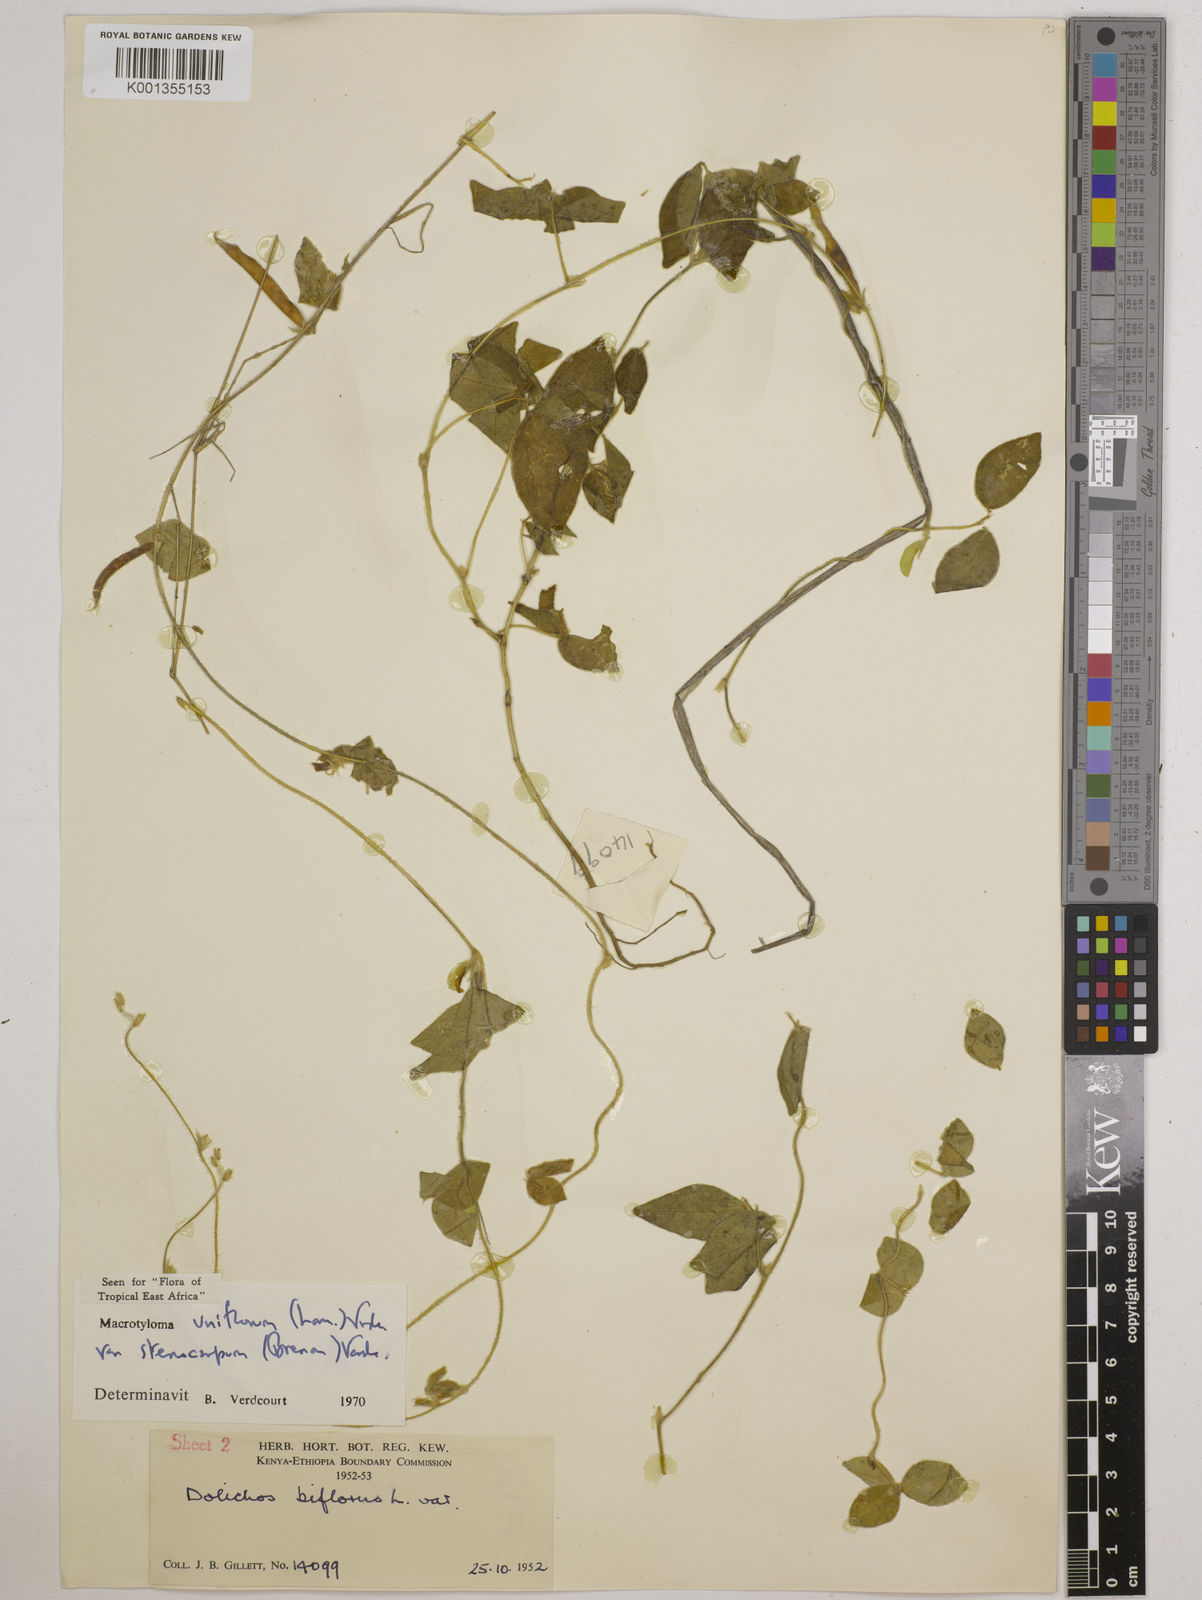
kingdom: Plantae
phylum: Tracheophyta
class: Magnoliopsida
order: Fabales
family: Fabaceae
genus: Macrotyloma
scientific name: Macrotyloma
